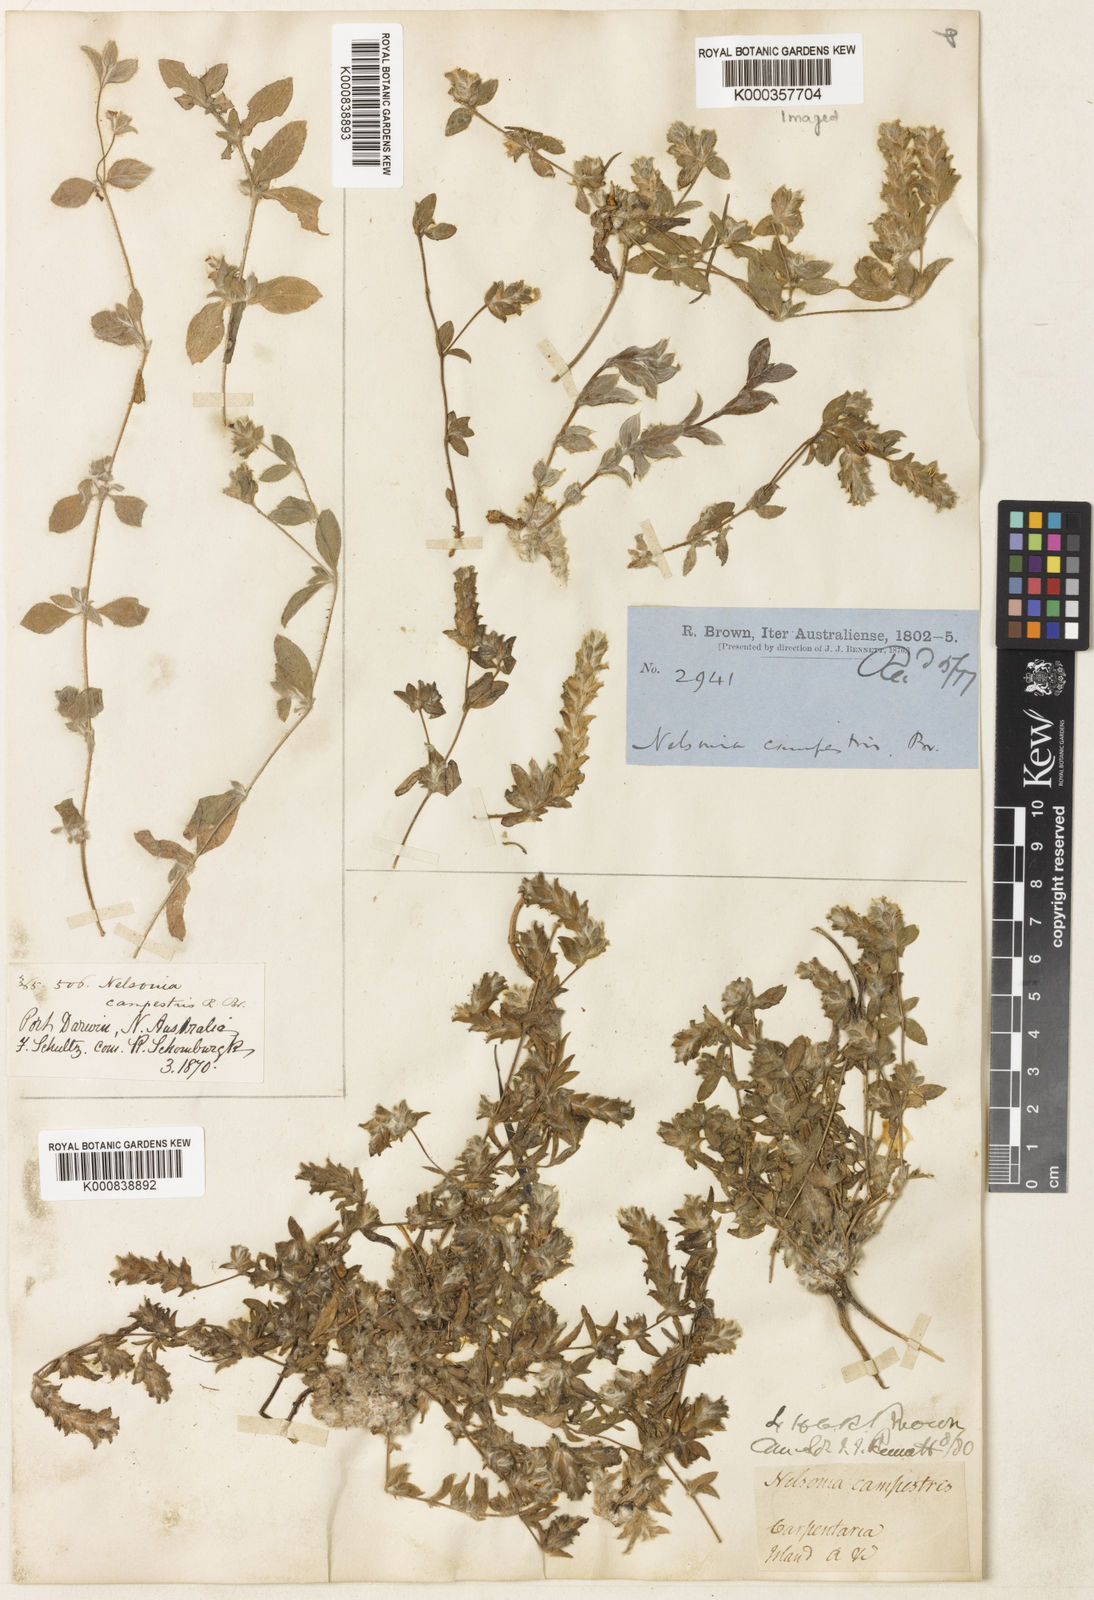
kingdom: Plantae
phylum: Tracheophyta
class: Magnoliopsida
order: Lamiales
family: Acanthaceae
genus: Nelsonia
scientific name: Nelsonia canescens
